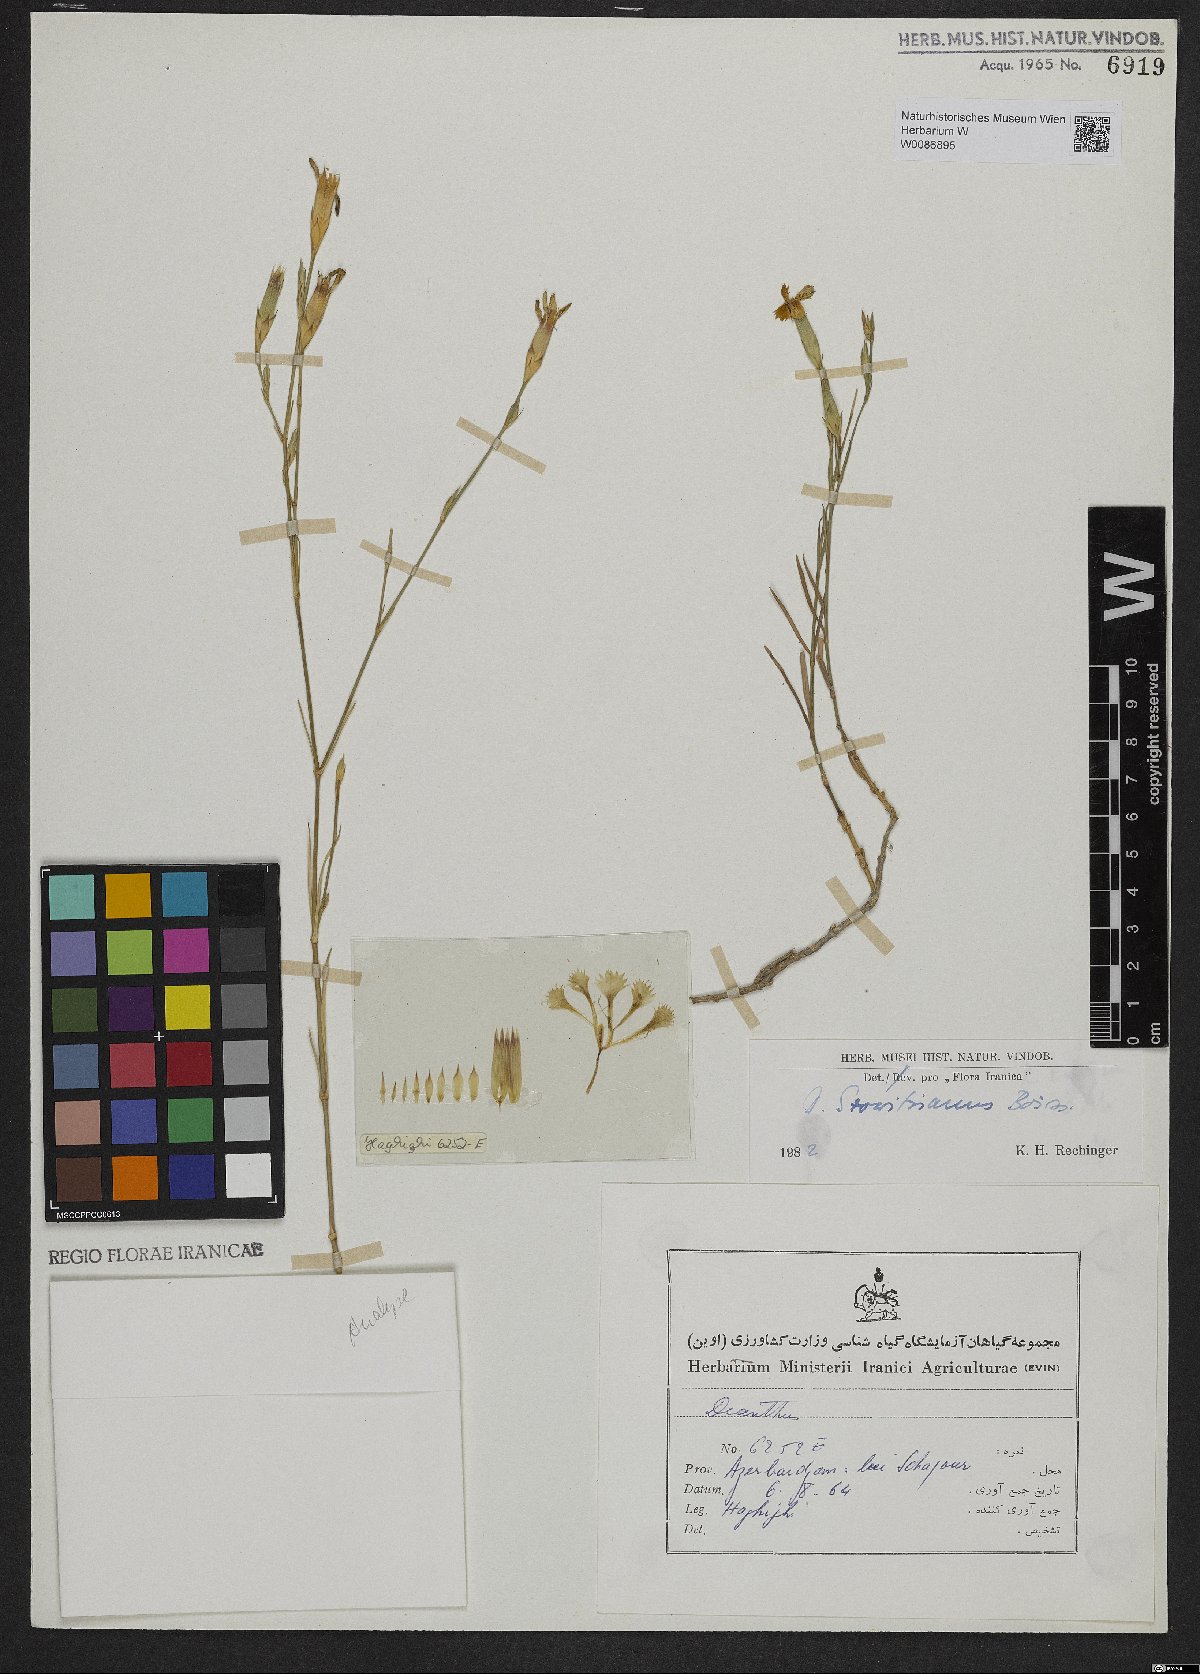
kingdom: Plantae
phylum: Tracheophyta
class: Magnoliopsida
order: Caryophyllales
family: Caryophyllaceae
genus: Dianthus
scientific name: Dianthus szowitsianus
